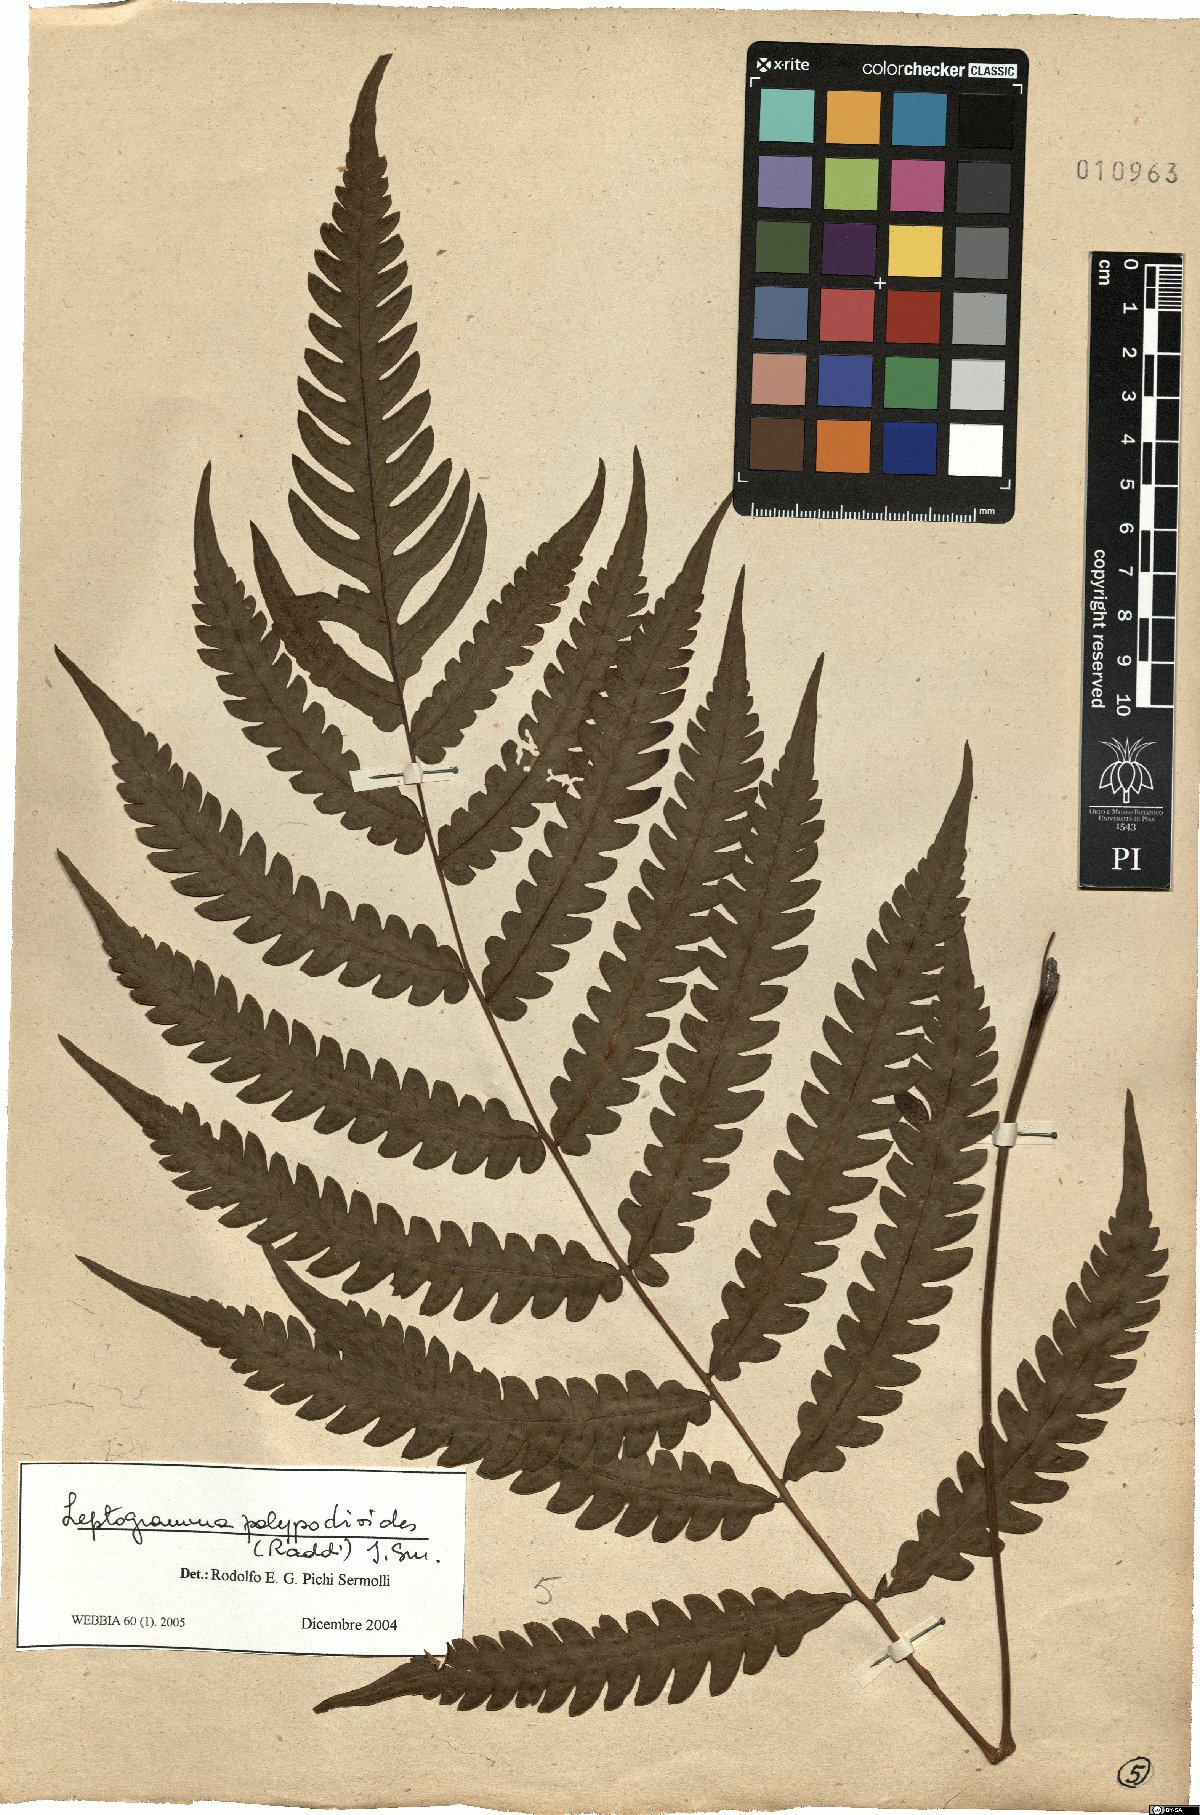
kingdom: Plantae
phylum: Tracheophyta
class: Polypodiopsida
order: Polypodiales
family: Thelypteridaceae
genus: Steiropteris
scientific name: Steiropteris polypodioides
